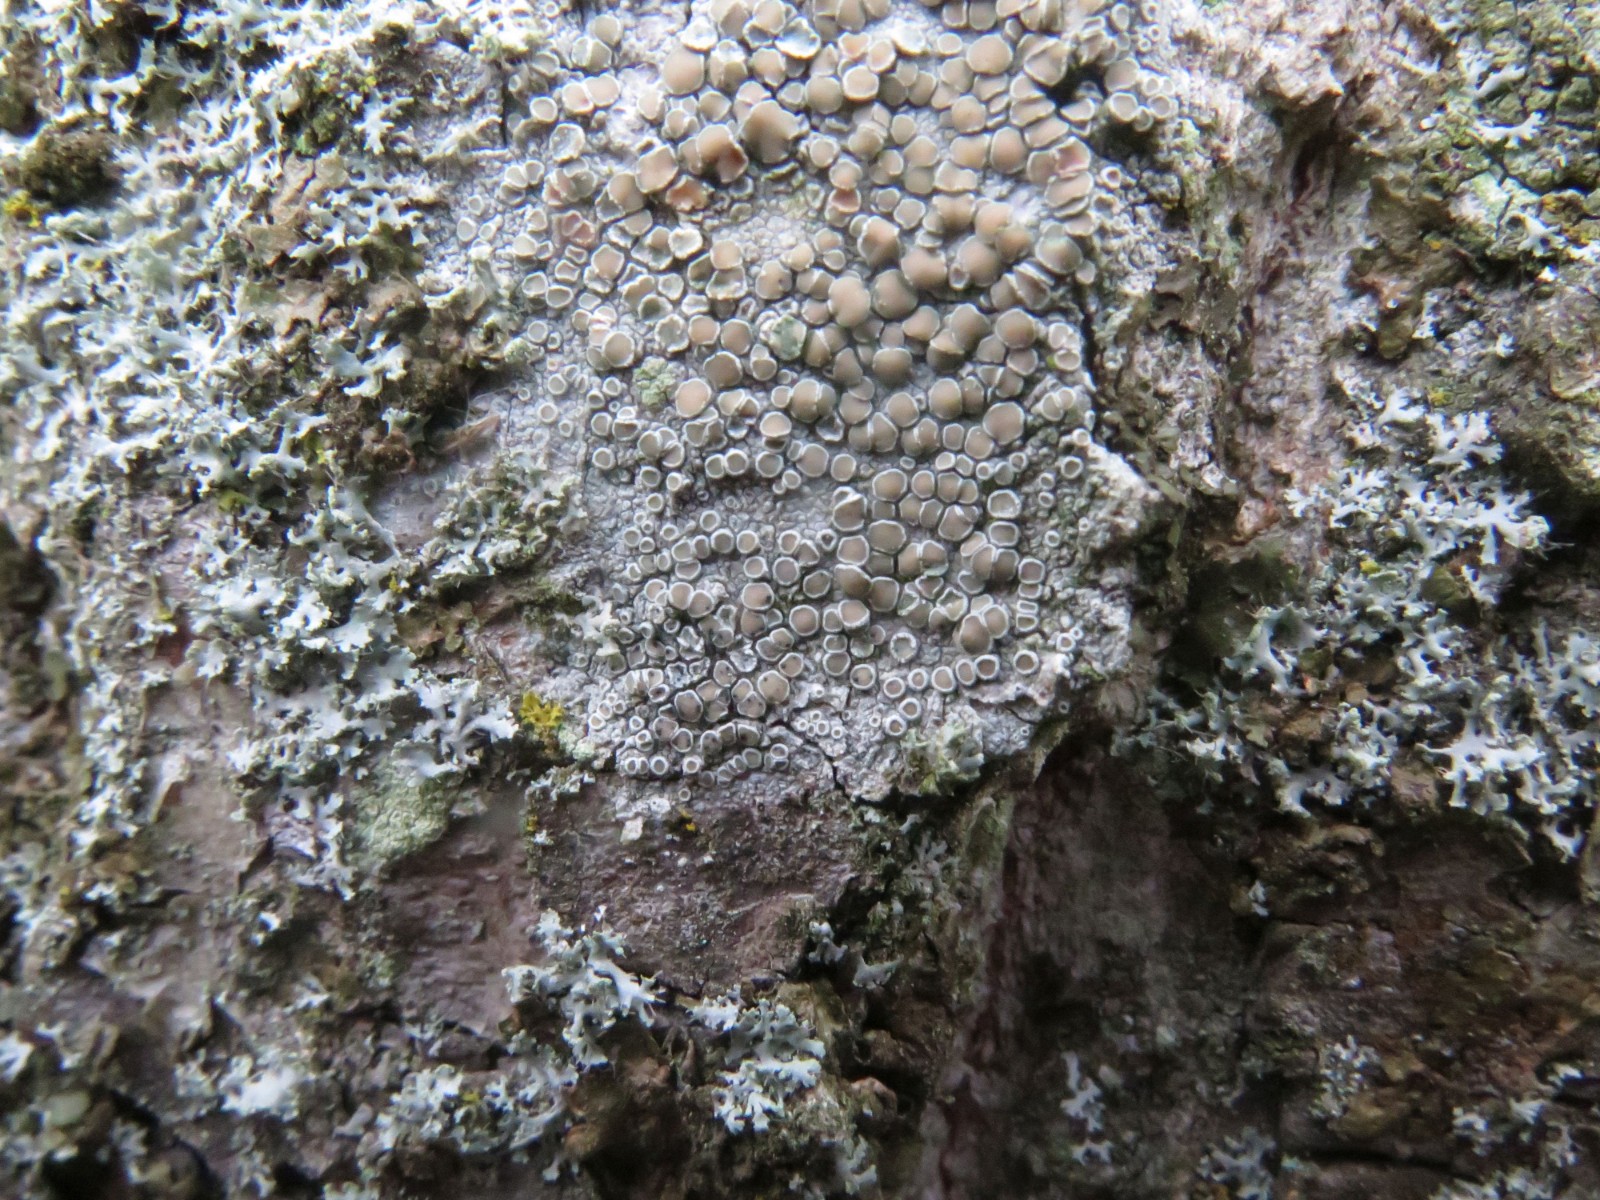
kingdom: Fungi
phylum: Ascomycota
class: Lecanoromycetes
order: Lecanorales
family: Lecanoraceae
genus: Lecanora
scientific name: Lecanora chlarotera
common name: brun kantskivelav
